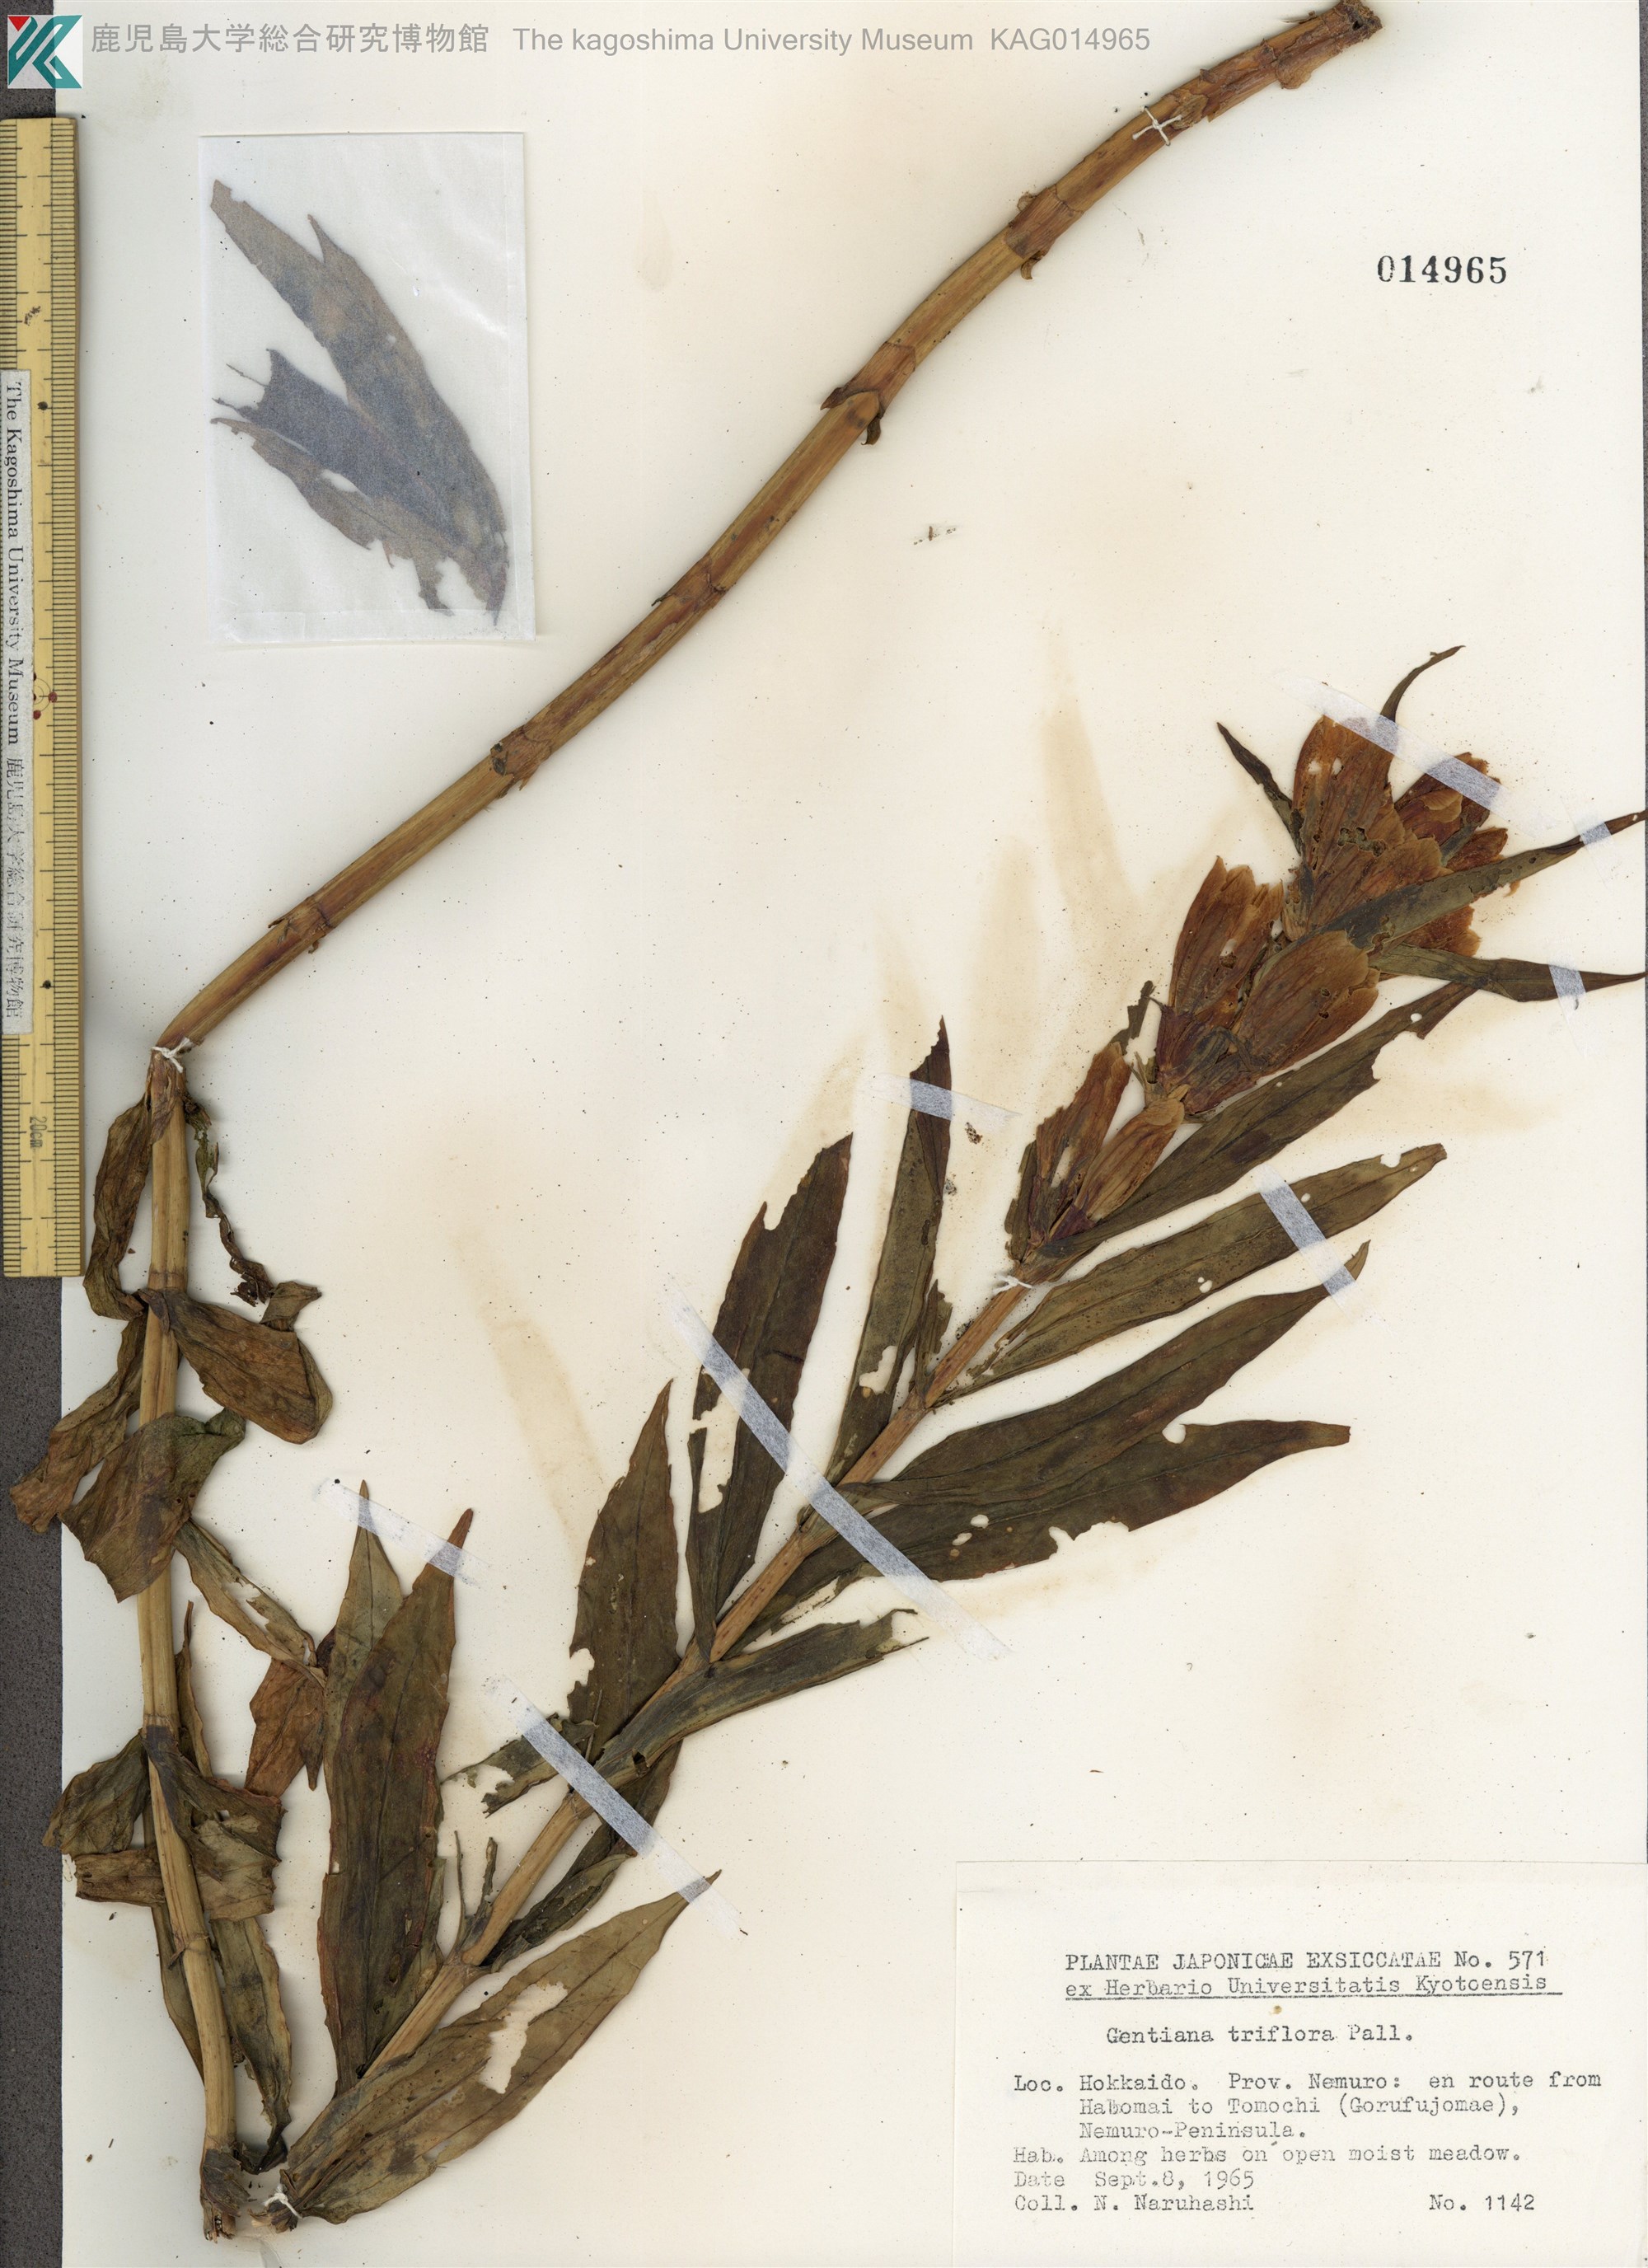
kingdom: Plantae
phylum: Tracheophyta
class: Magnoliopsida
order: Gentianales
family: Gentianaceae
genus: Gentiana
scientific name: Gentiana triflora
